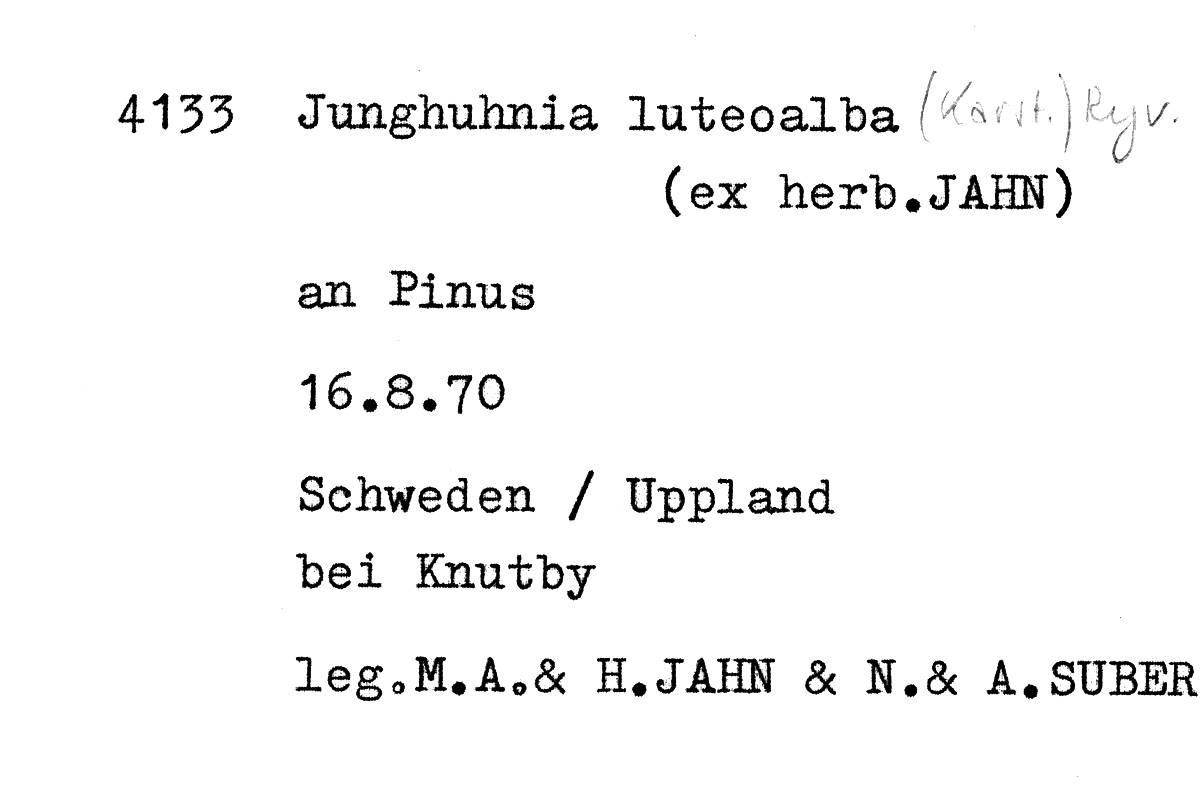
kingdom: Plantae
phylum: Tracheophyta
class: Pinopsida
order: Pinales
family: Pinaceae
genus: Pinus
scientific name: Pinus
